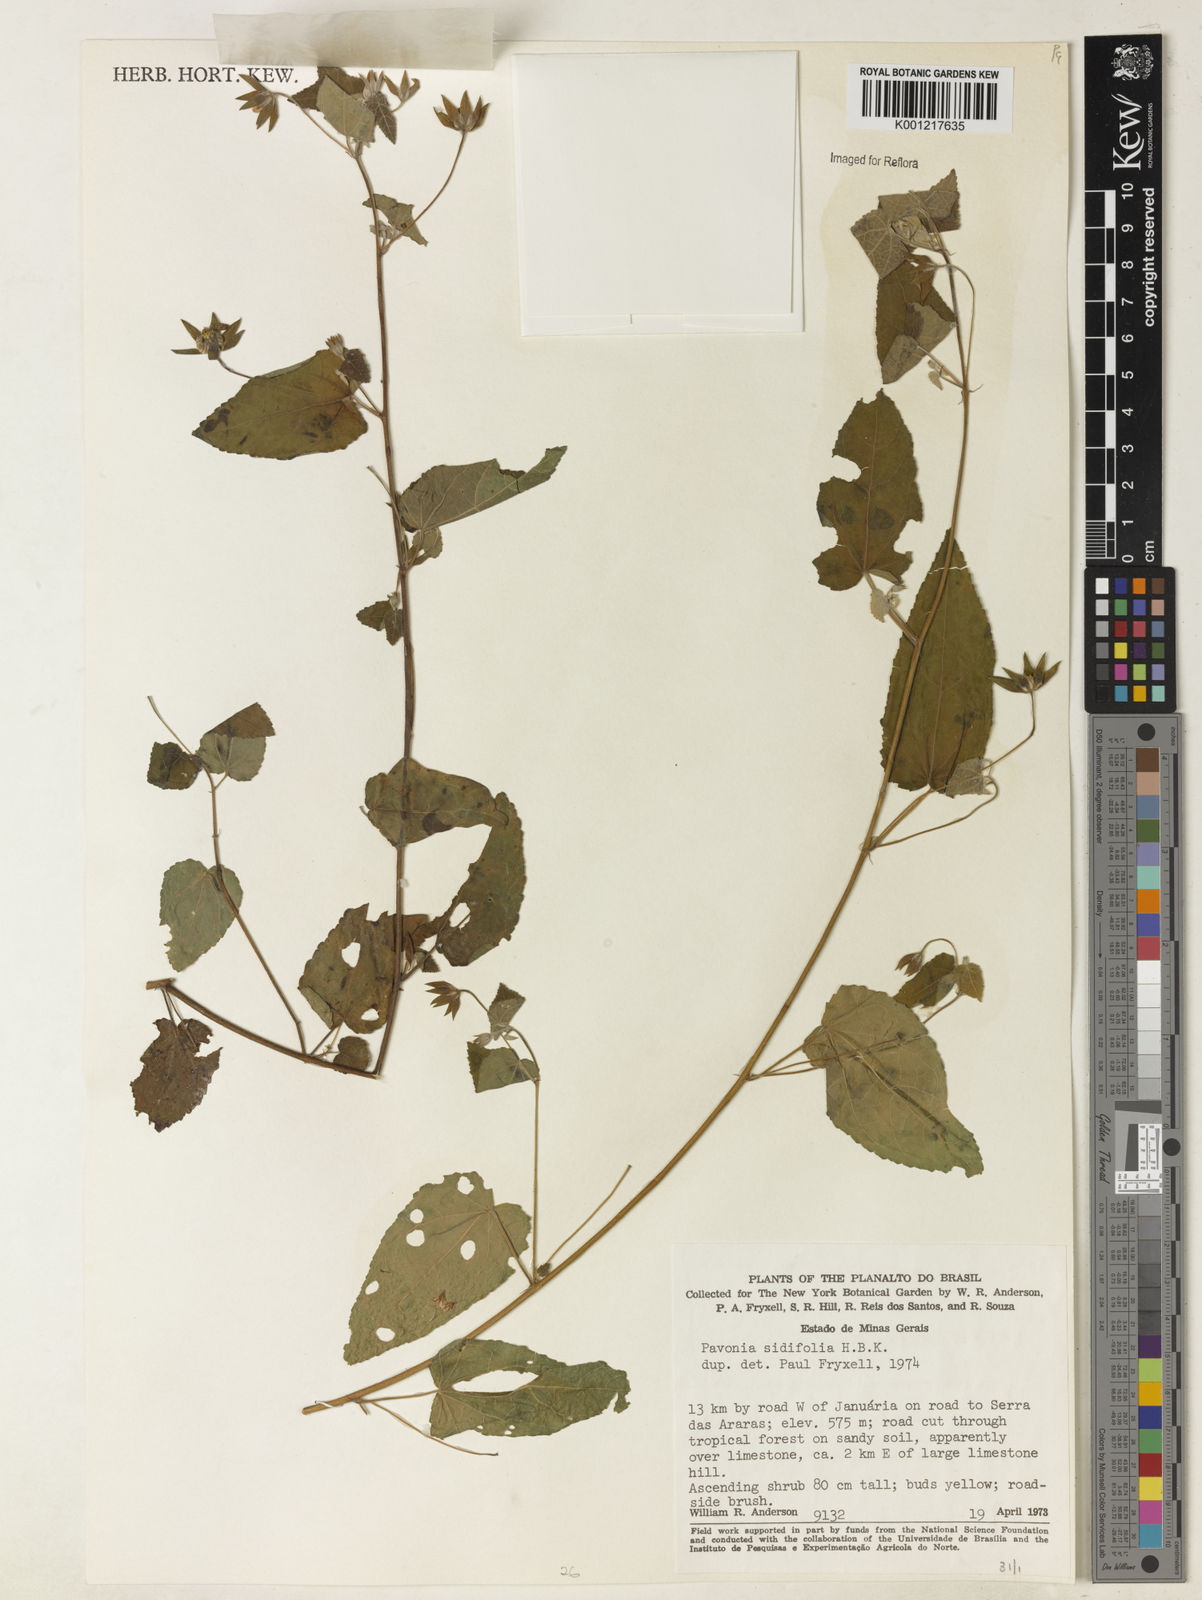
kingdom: Plantae
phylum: Tracheophyta
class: Magnoliopsida
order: Malvales
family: Malvaceae
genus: Pavonia
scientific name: Pavonia sidifolia
